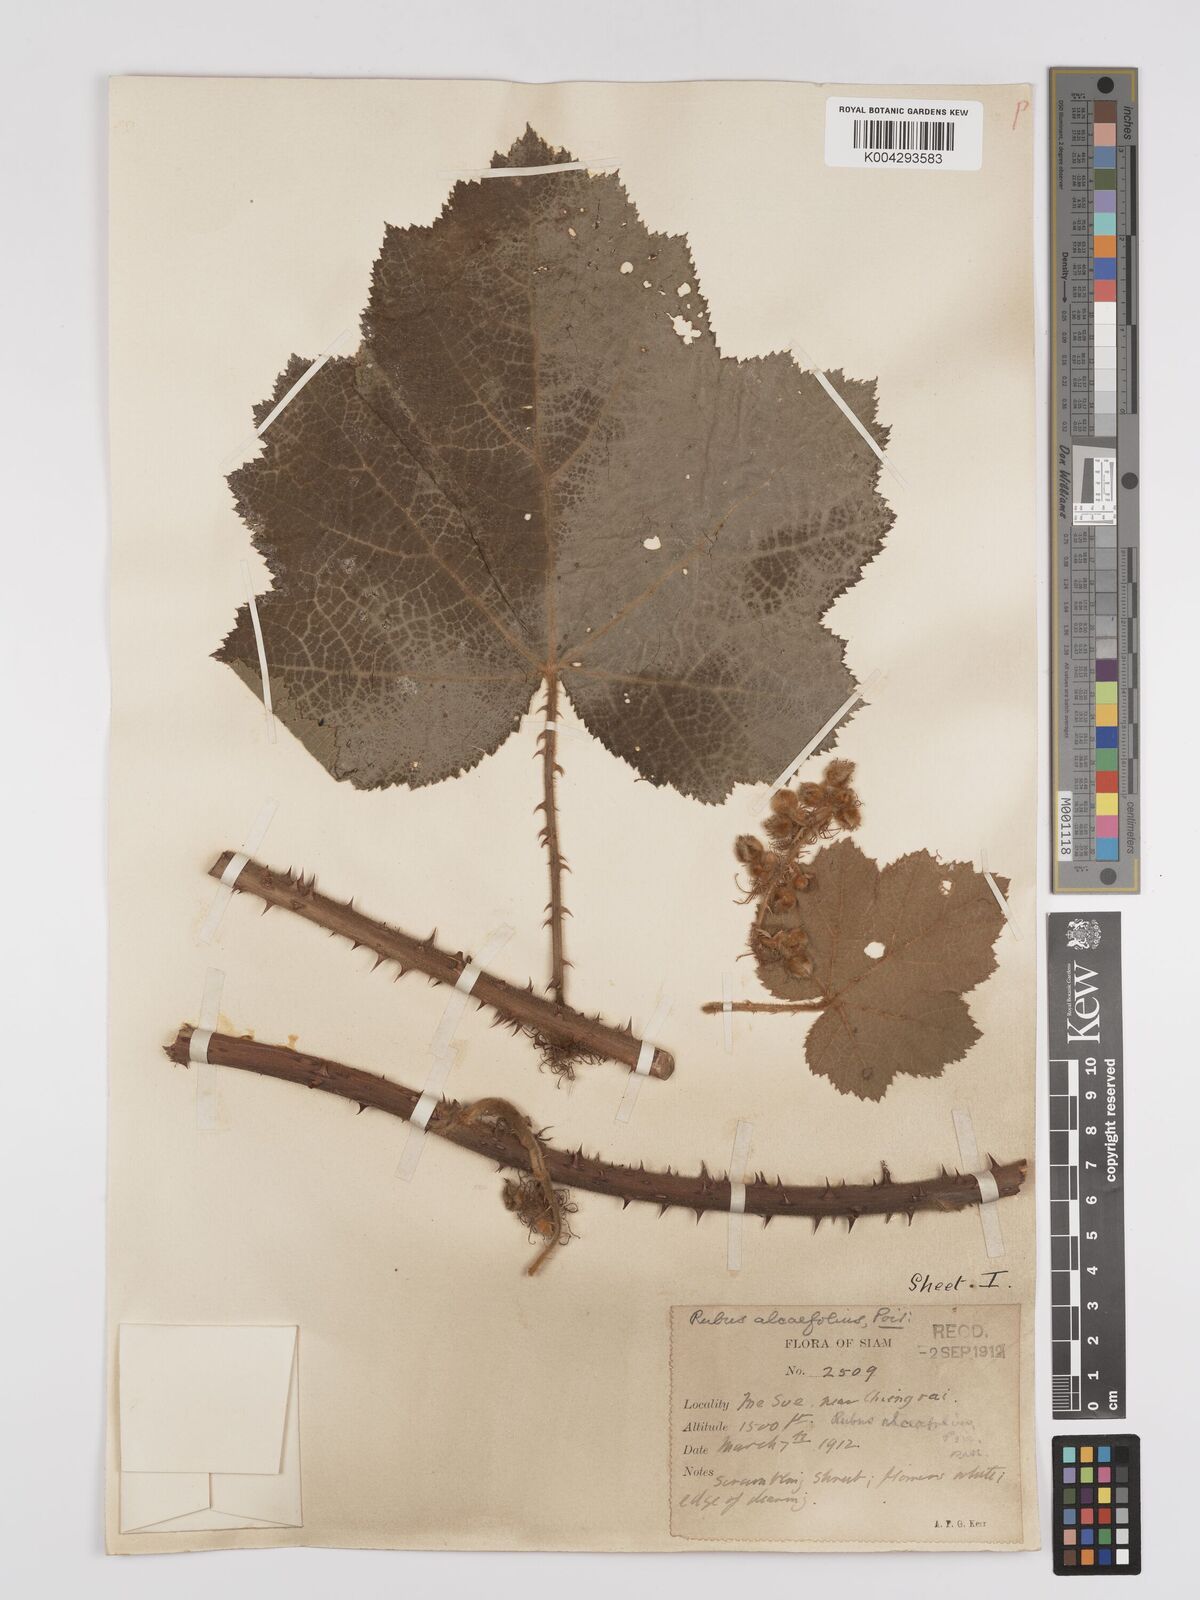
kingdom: Plantae
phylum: Tracheophyta
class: Magnoliopsida
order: Rosales
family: Rosaceae
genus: Rubus
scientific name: Rubus alceifolius
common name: Giant bramble
